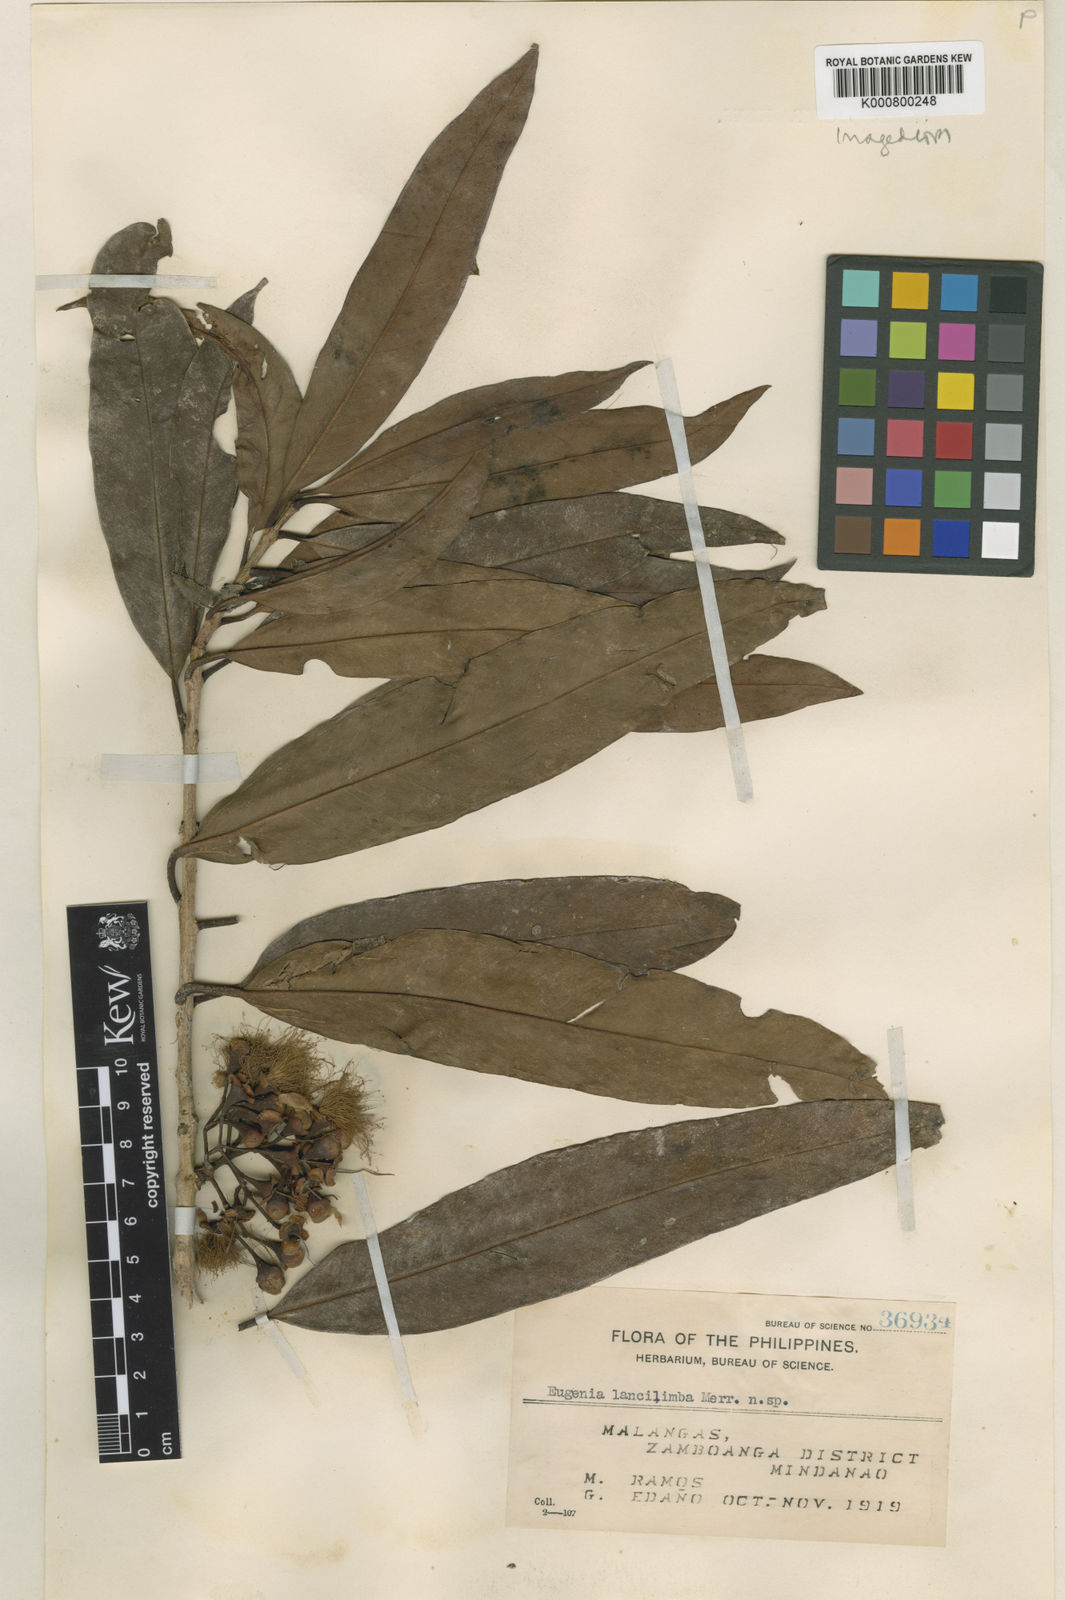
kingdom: Plantae
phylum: Tracheophyta
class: Magnoliopsida
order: Myrtales
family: Myrtaceae
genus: Syzygium
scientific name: Syzygium lancilimbum
